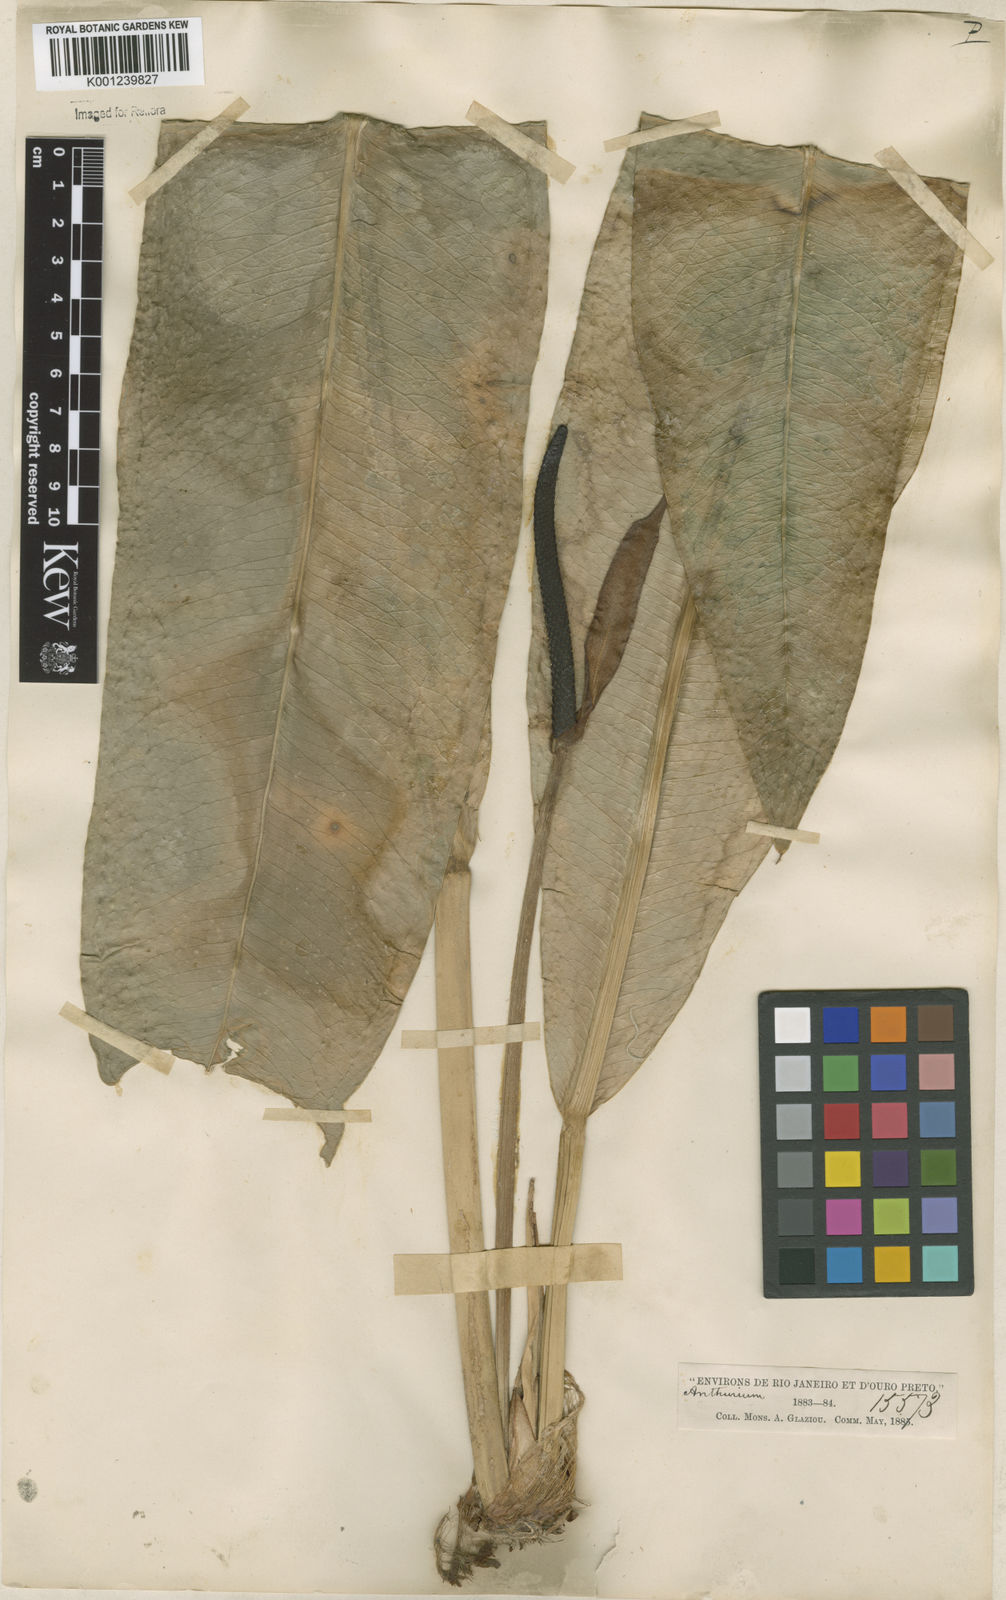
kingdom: Plantae
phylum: Tracheophyta
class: Liliopsida
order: Alismatales
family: Araceae
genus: Anthurium
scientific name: Anthurium
